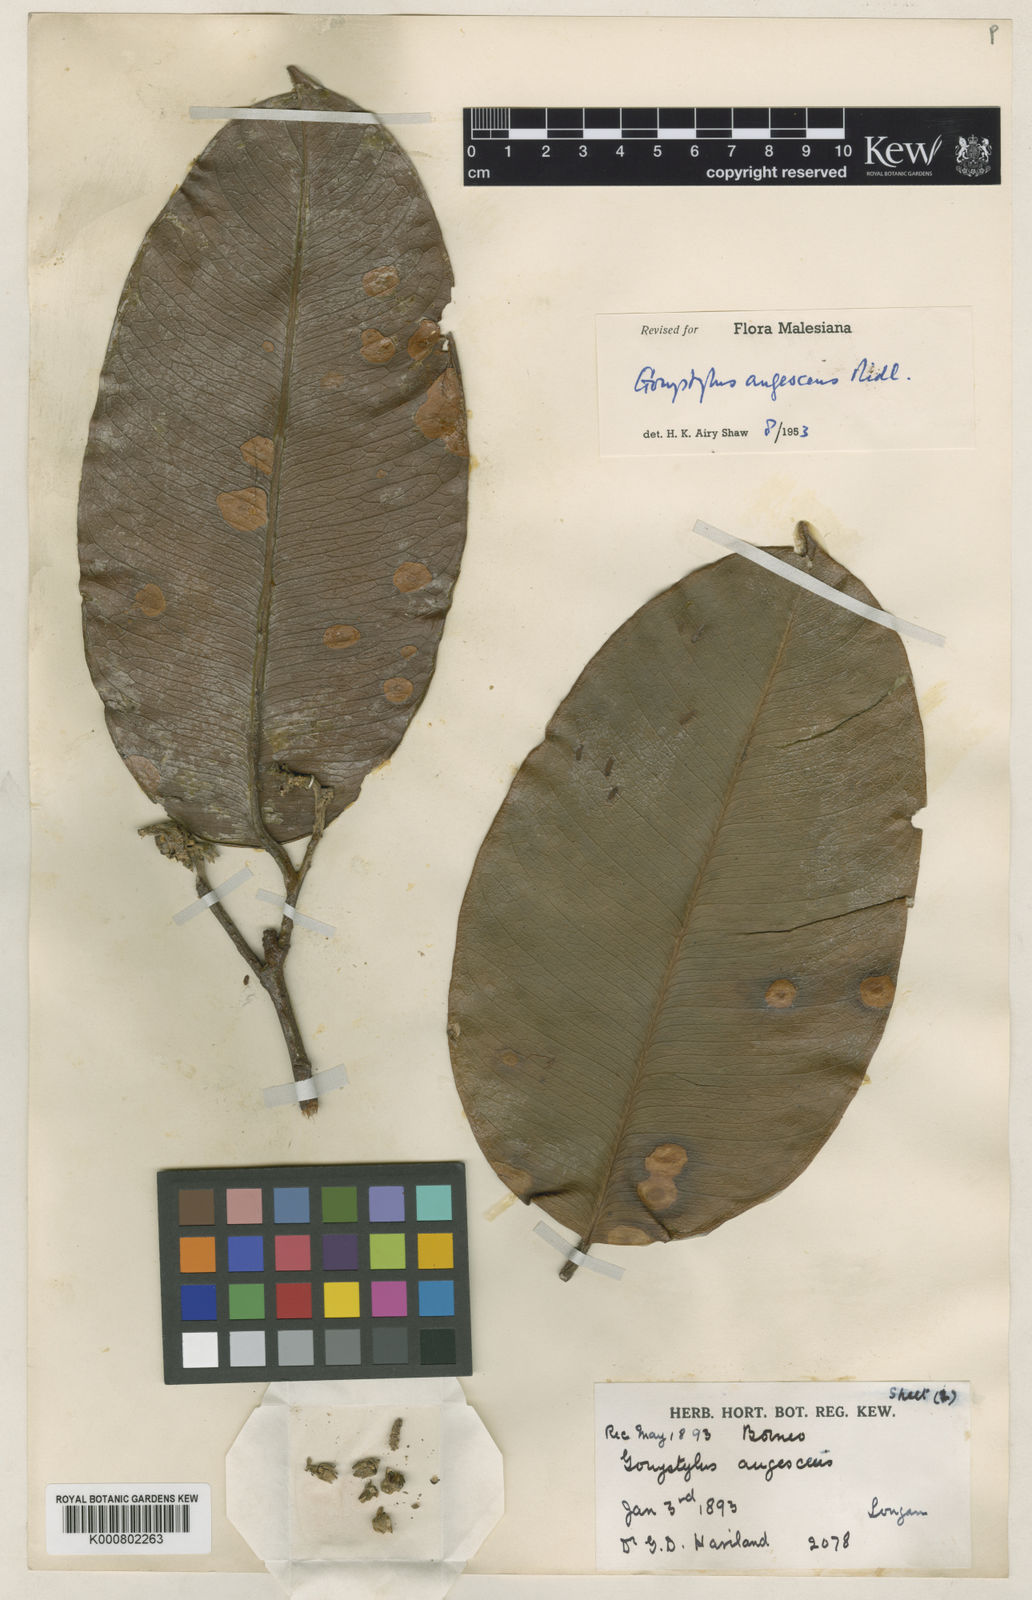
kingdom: Plantae
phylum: Tracheophyta
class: Magnoliopsida
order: Malvales
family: Thymelaeaceae
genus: Gonystylus
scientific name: Gonystylus augescens
